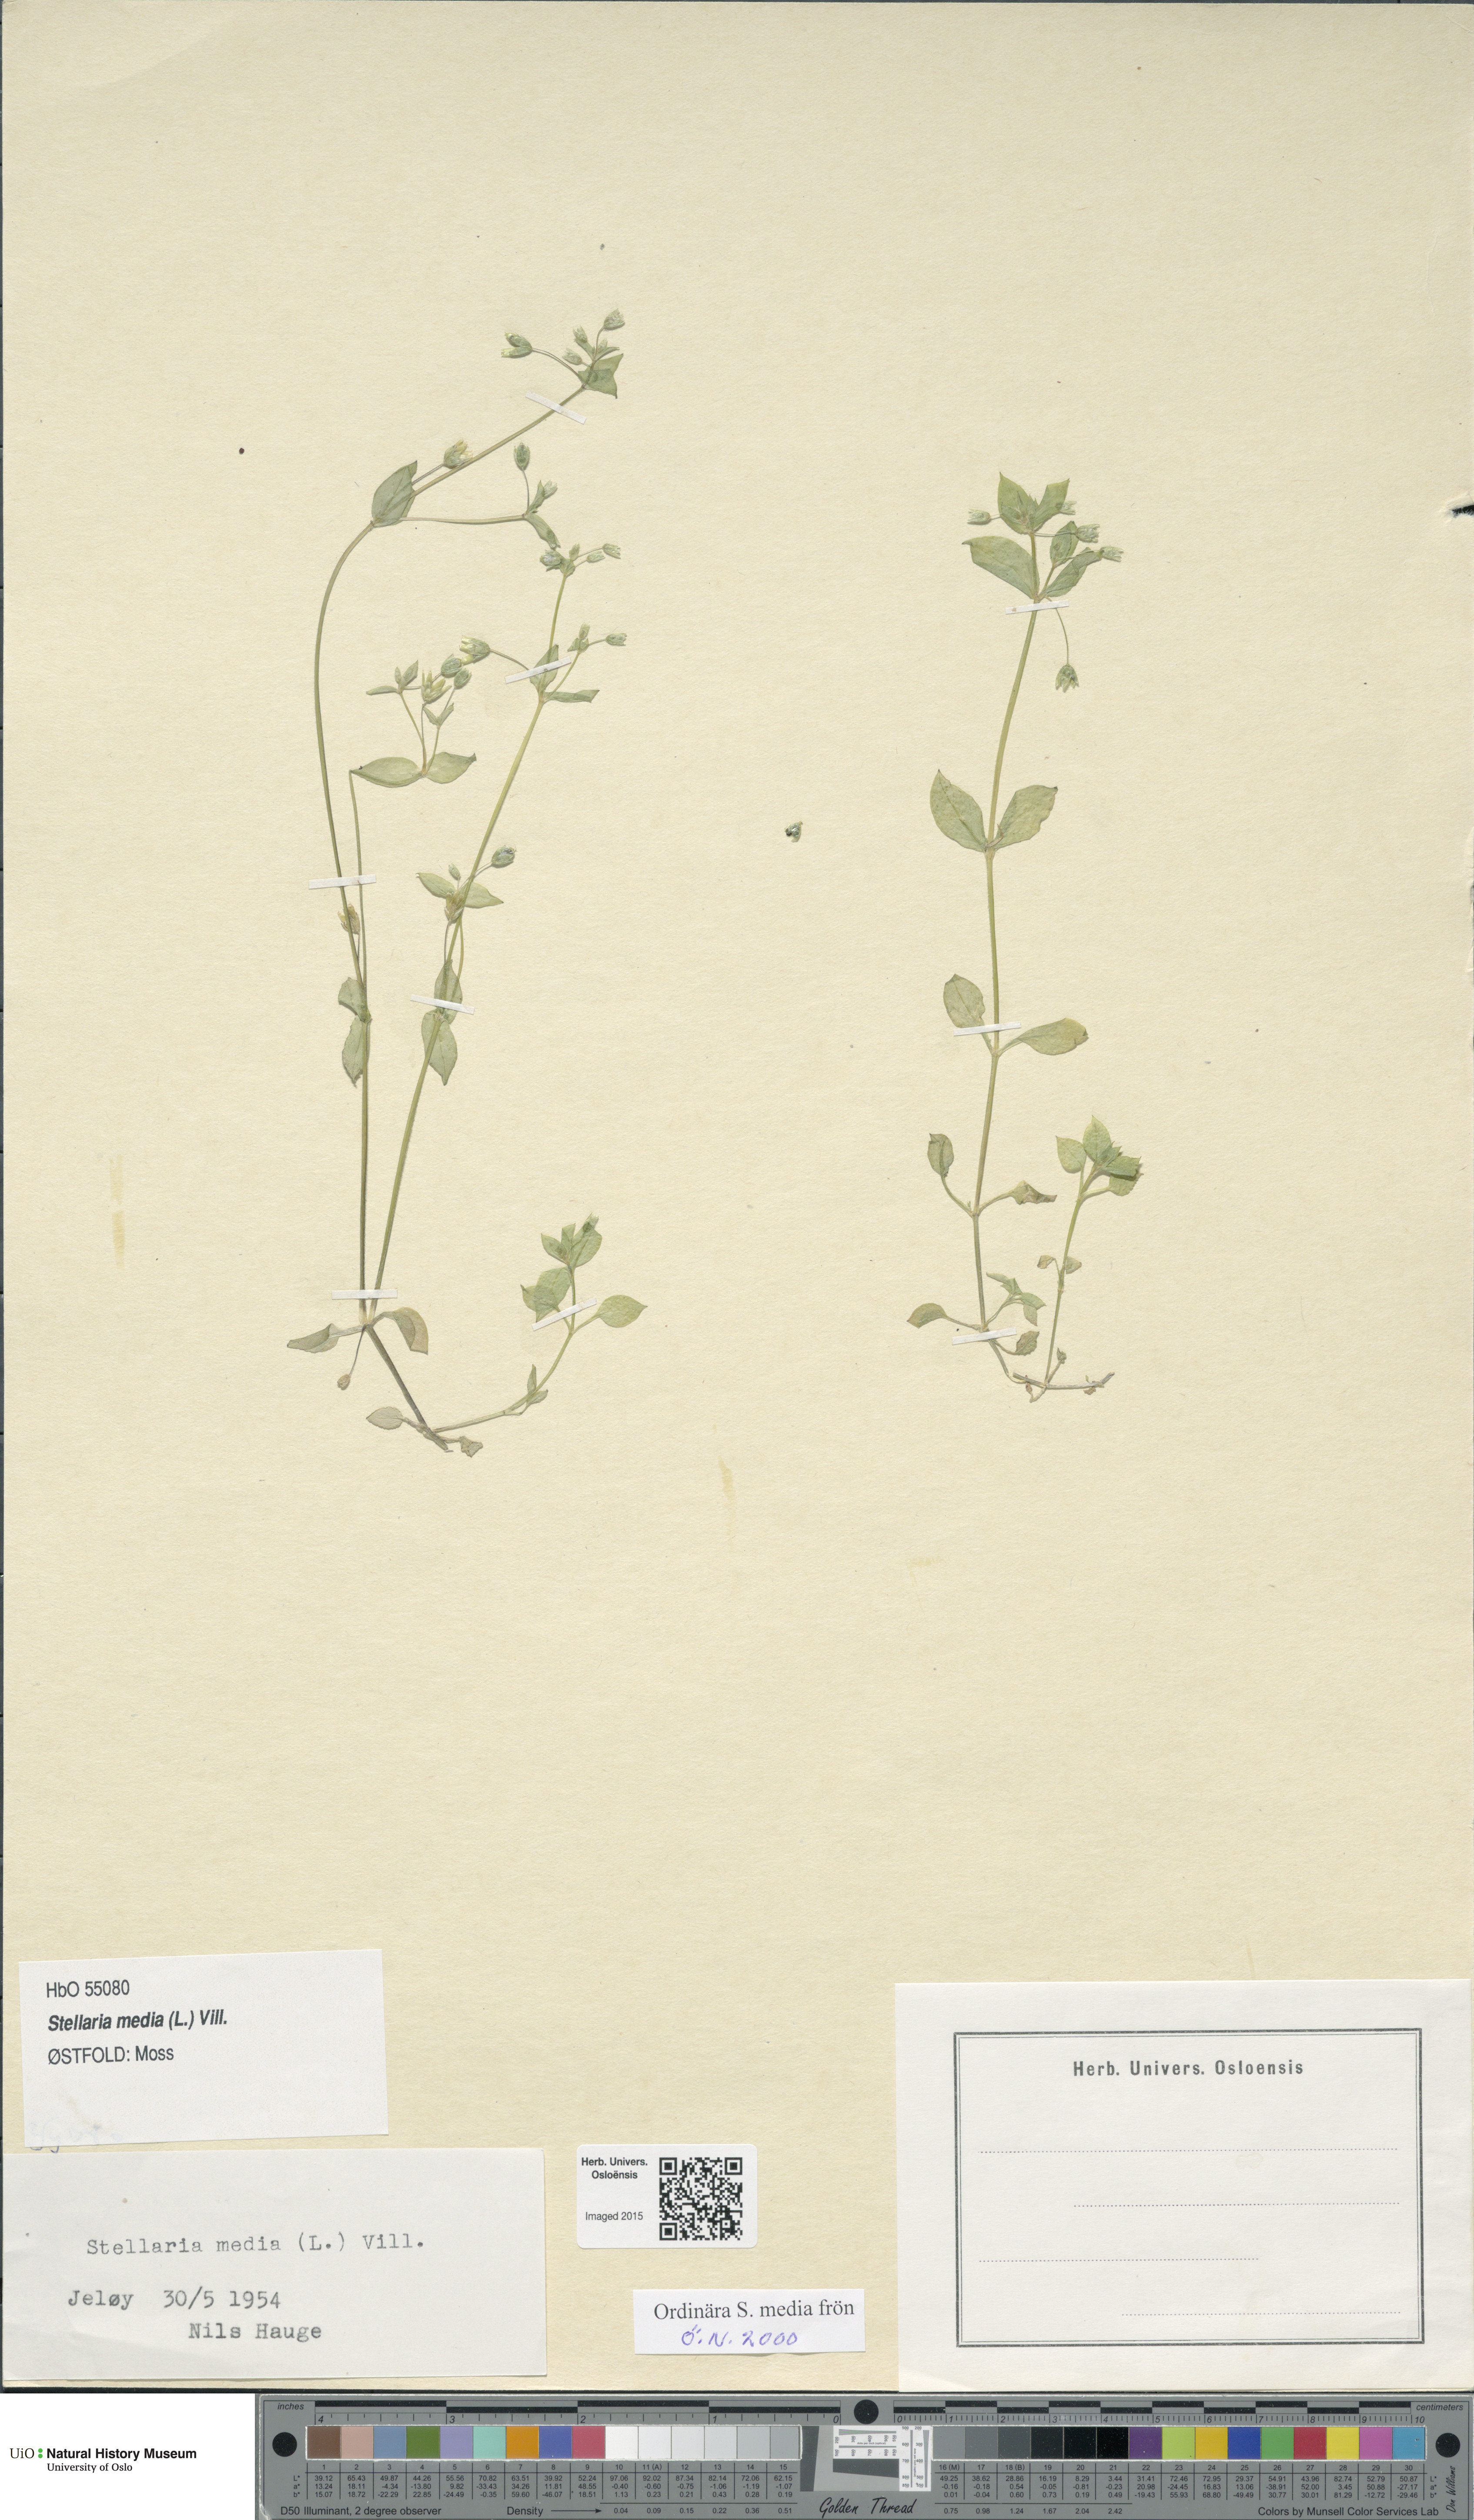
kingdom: Plantae
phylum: Tracheophyta
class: Magnoliopsida
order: Caryophyllales
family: Caryophyllaceae
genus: Stellaria
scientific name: Stellaria media
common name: Common chickweed
